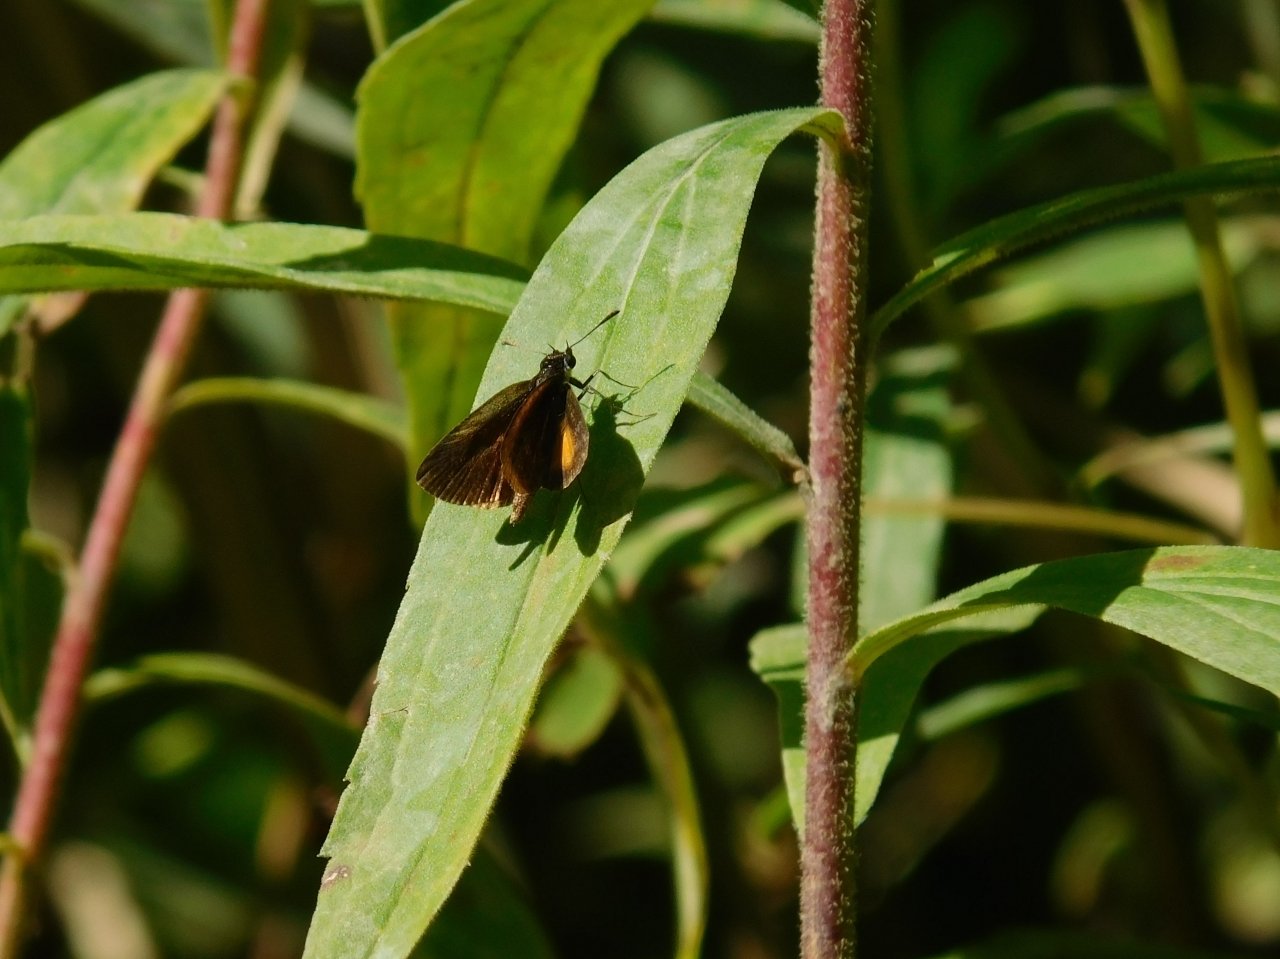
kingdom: Animalia
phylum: Arthropoda
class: Insecta
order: Lepidoptera
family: Hesperiidae
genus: Ancyloxypha
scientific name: Ancyloxypha numitor
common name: Least Skipper
